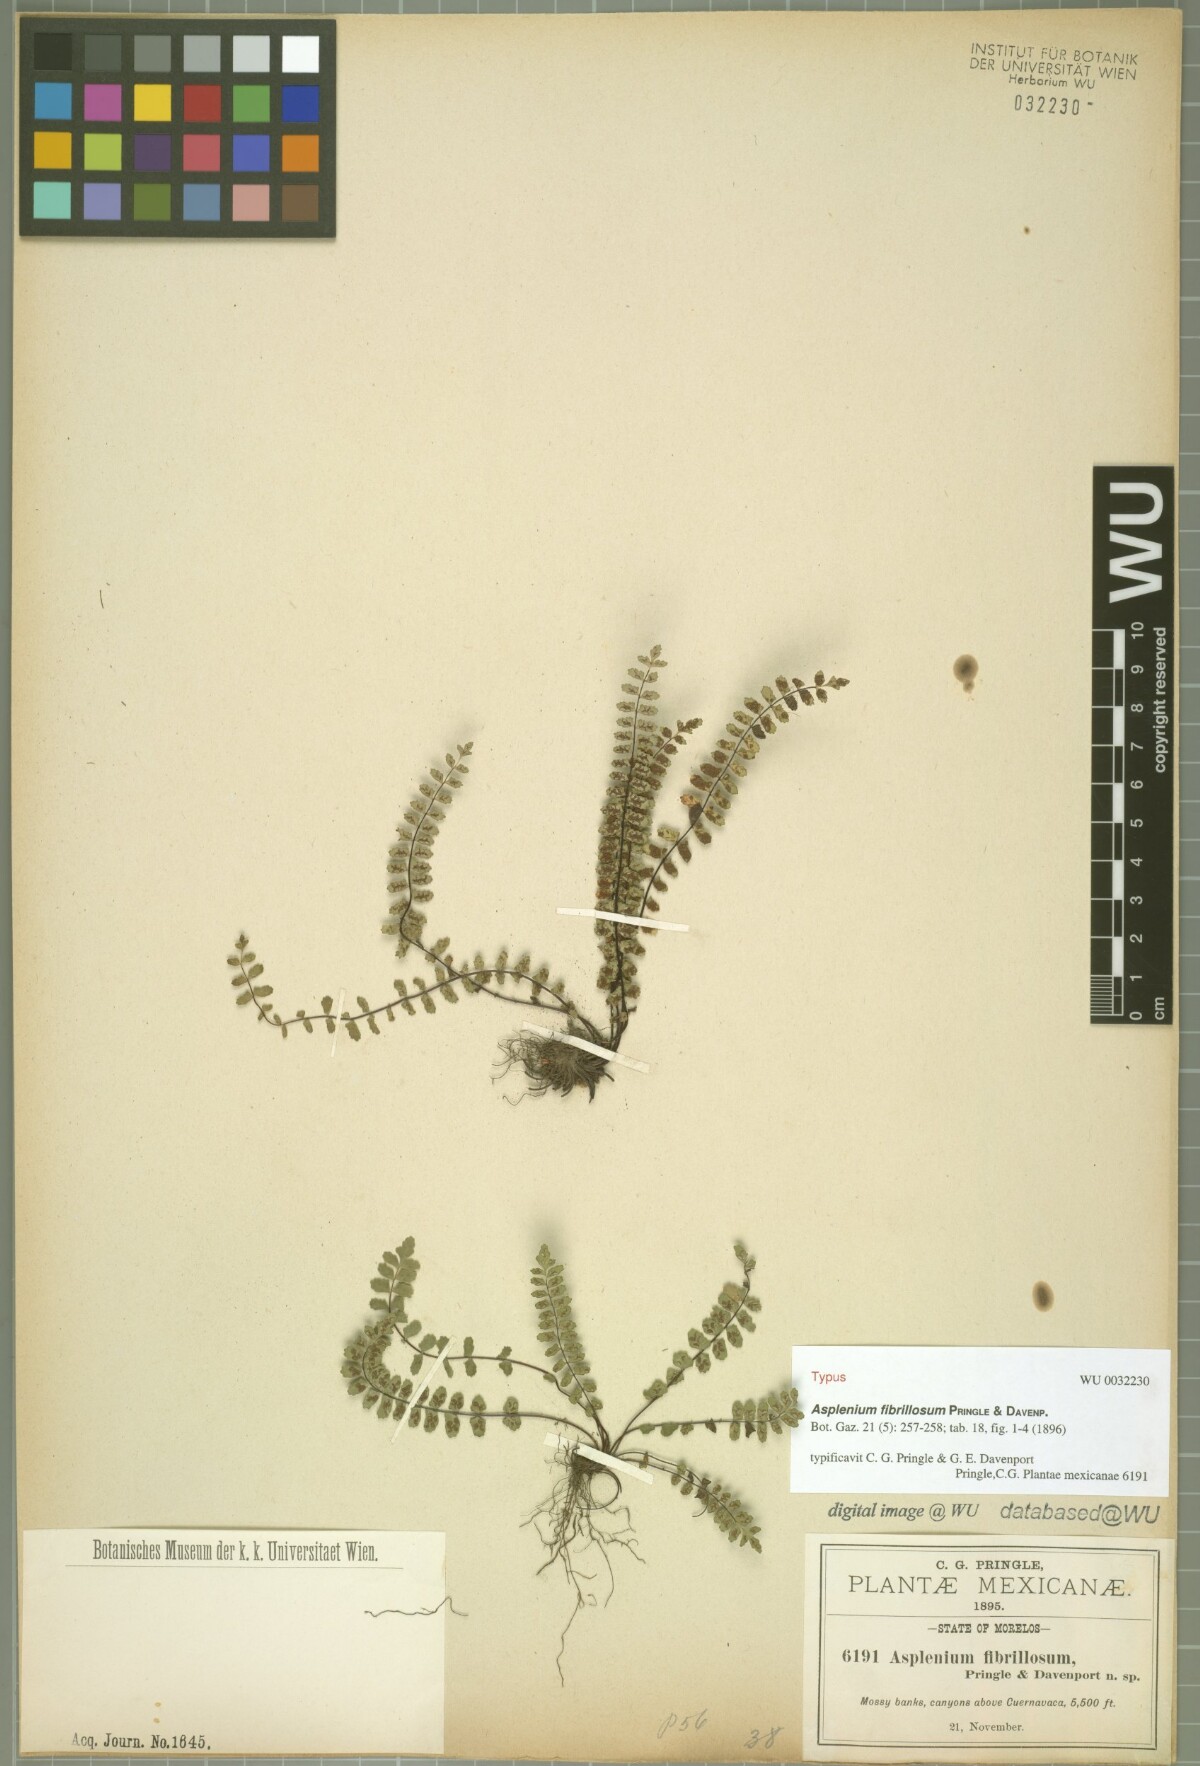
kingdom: Plantae
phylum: Tracheophyta
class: Polypodiopsida
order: Polypodiales
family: Aspleniaceae
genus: Asplenium
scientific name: Asplenium fibrillosum
